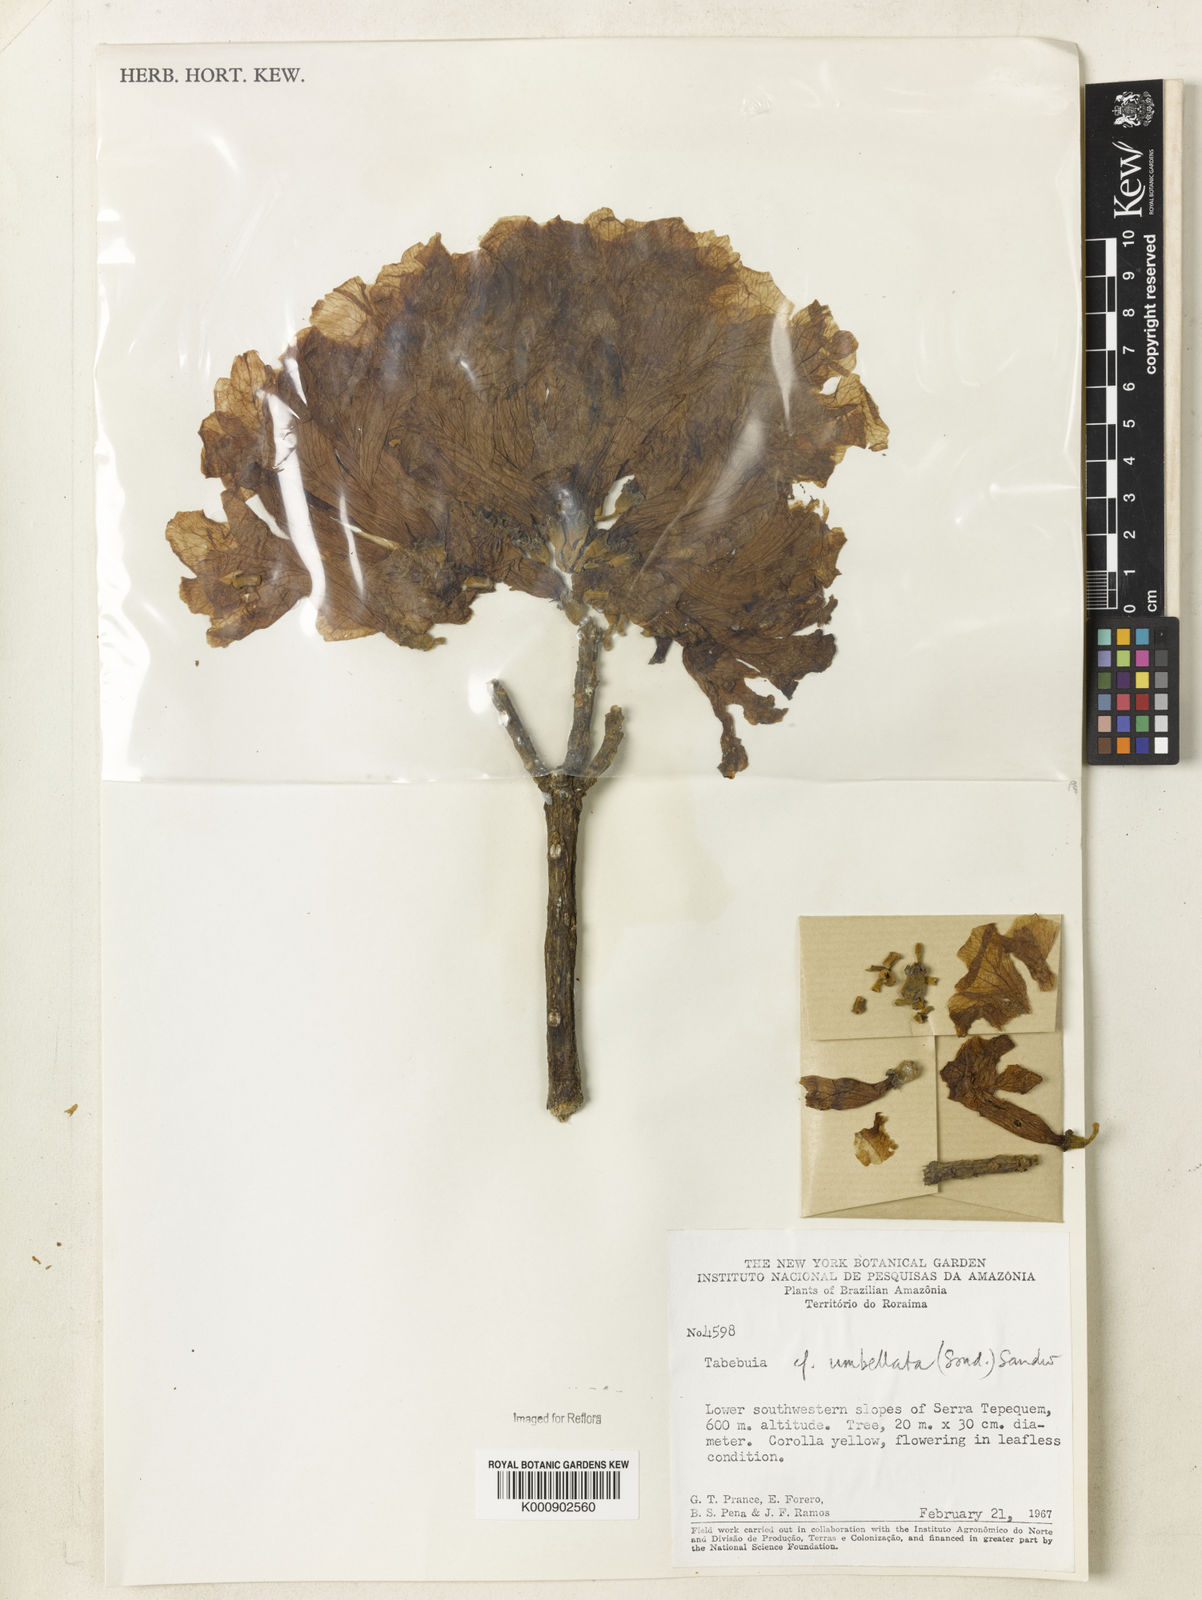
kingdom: Plantae
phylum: Tracheophyta
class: Magnoliopsida
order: Lamiales
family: Bignoniaceae
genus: Handroanthus
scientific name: Handroanthus umbellatus
